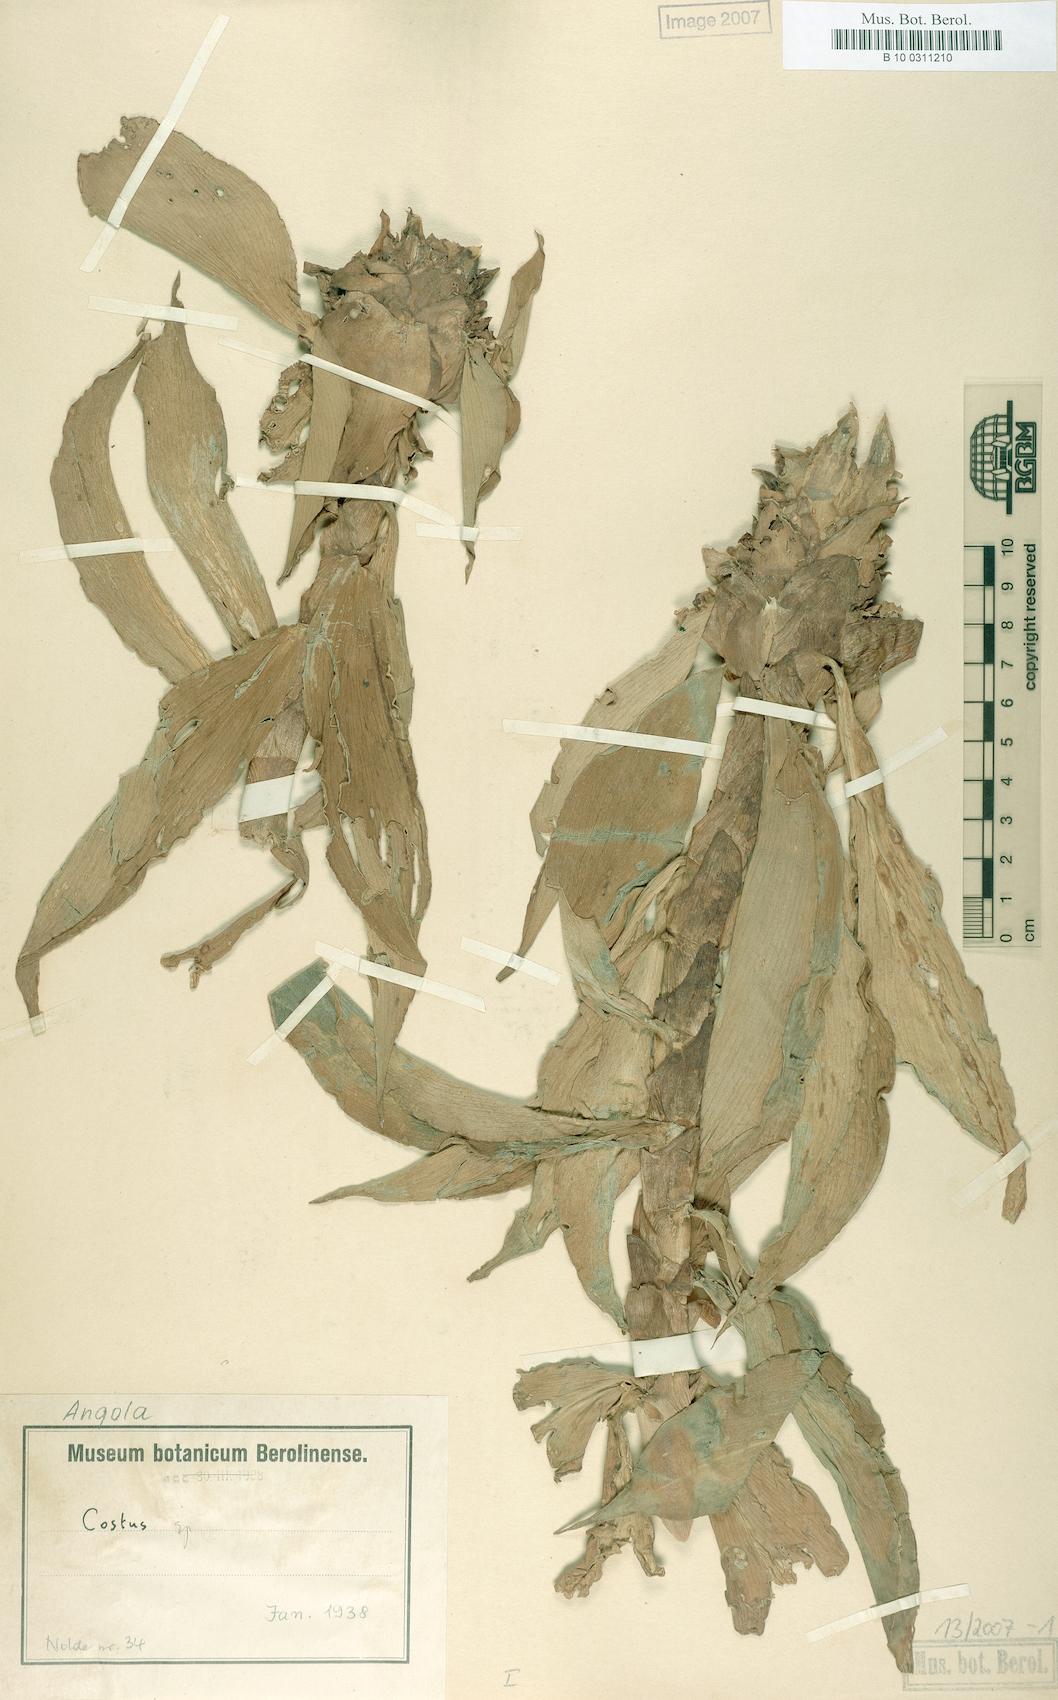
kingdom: Plantae
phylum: Tracheophyta
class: Liliopsida
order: Zingiberales
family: Costaceae
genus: Costus
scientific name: Costus phyllocephalus
